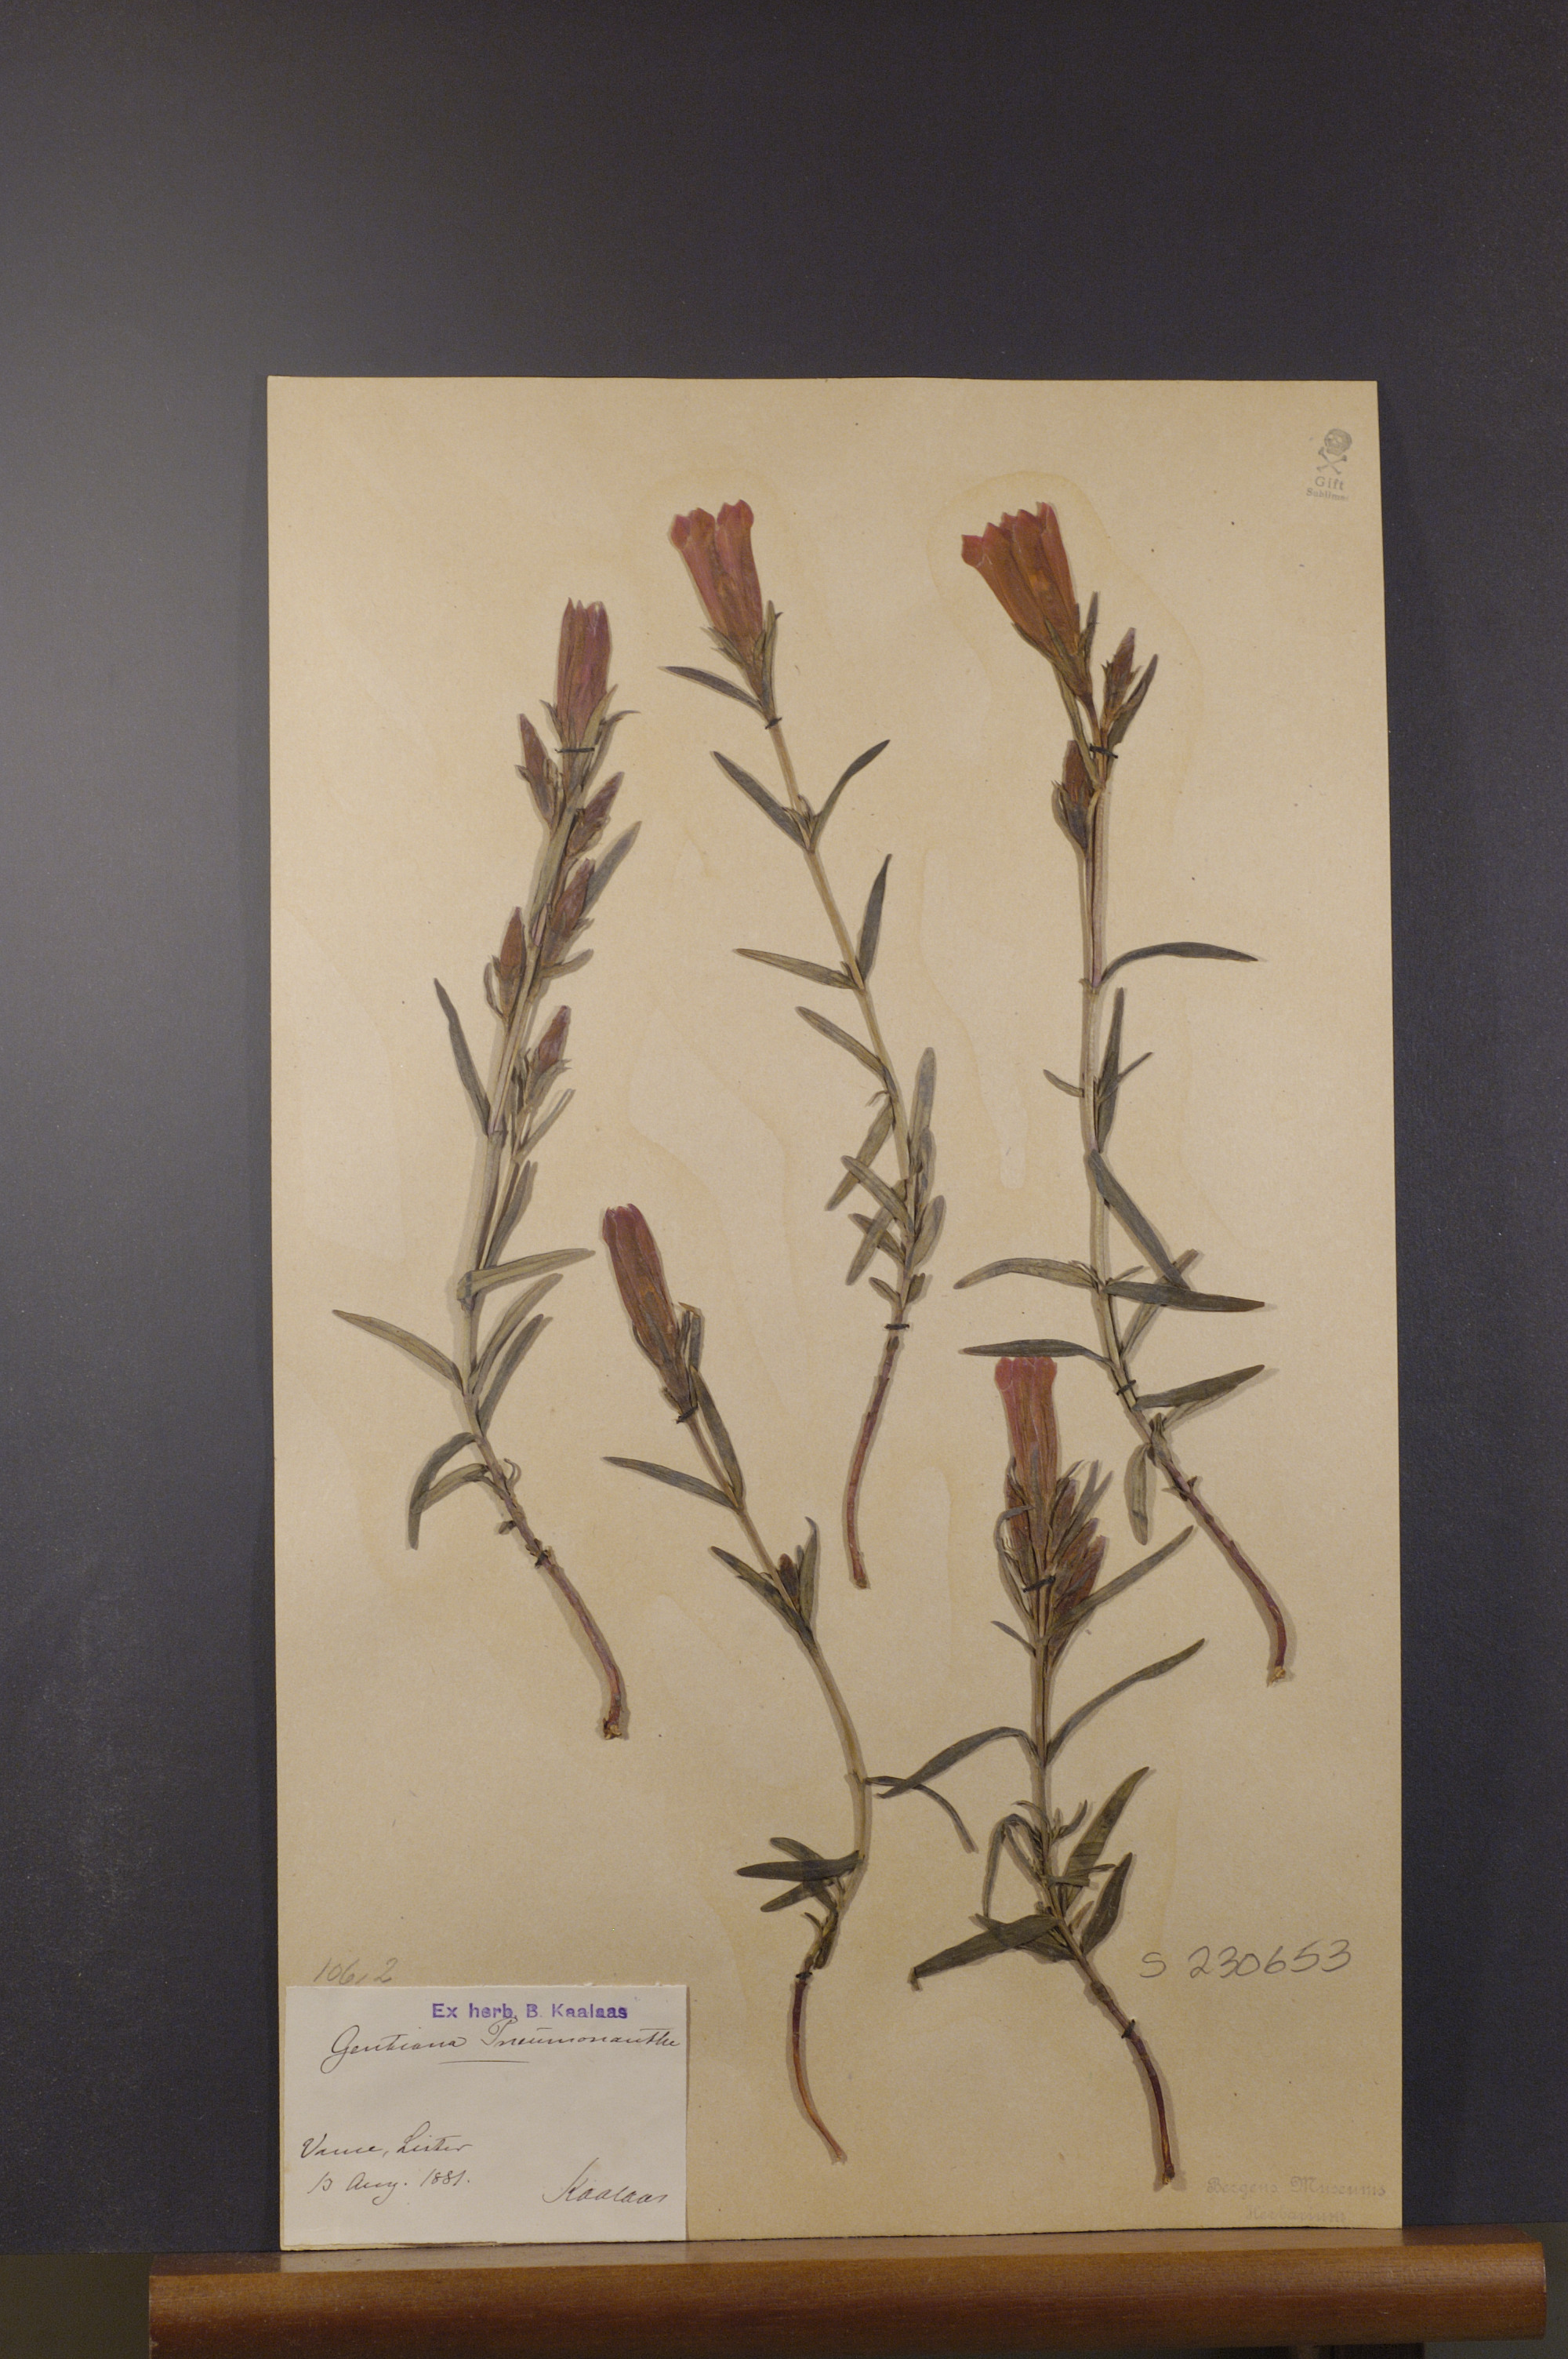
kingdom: Plantae
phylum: Tracheophyta
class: Magnoliopsida
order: Gentianales
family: Gentianaceae
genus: Gentiana
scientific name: Gentiana pneumonanthe
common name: Marsh gentian
